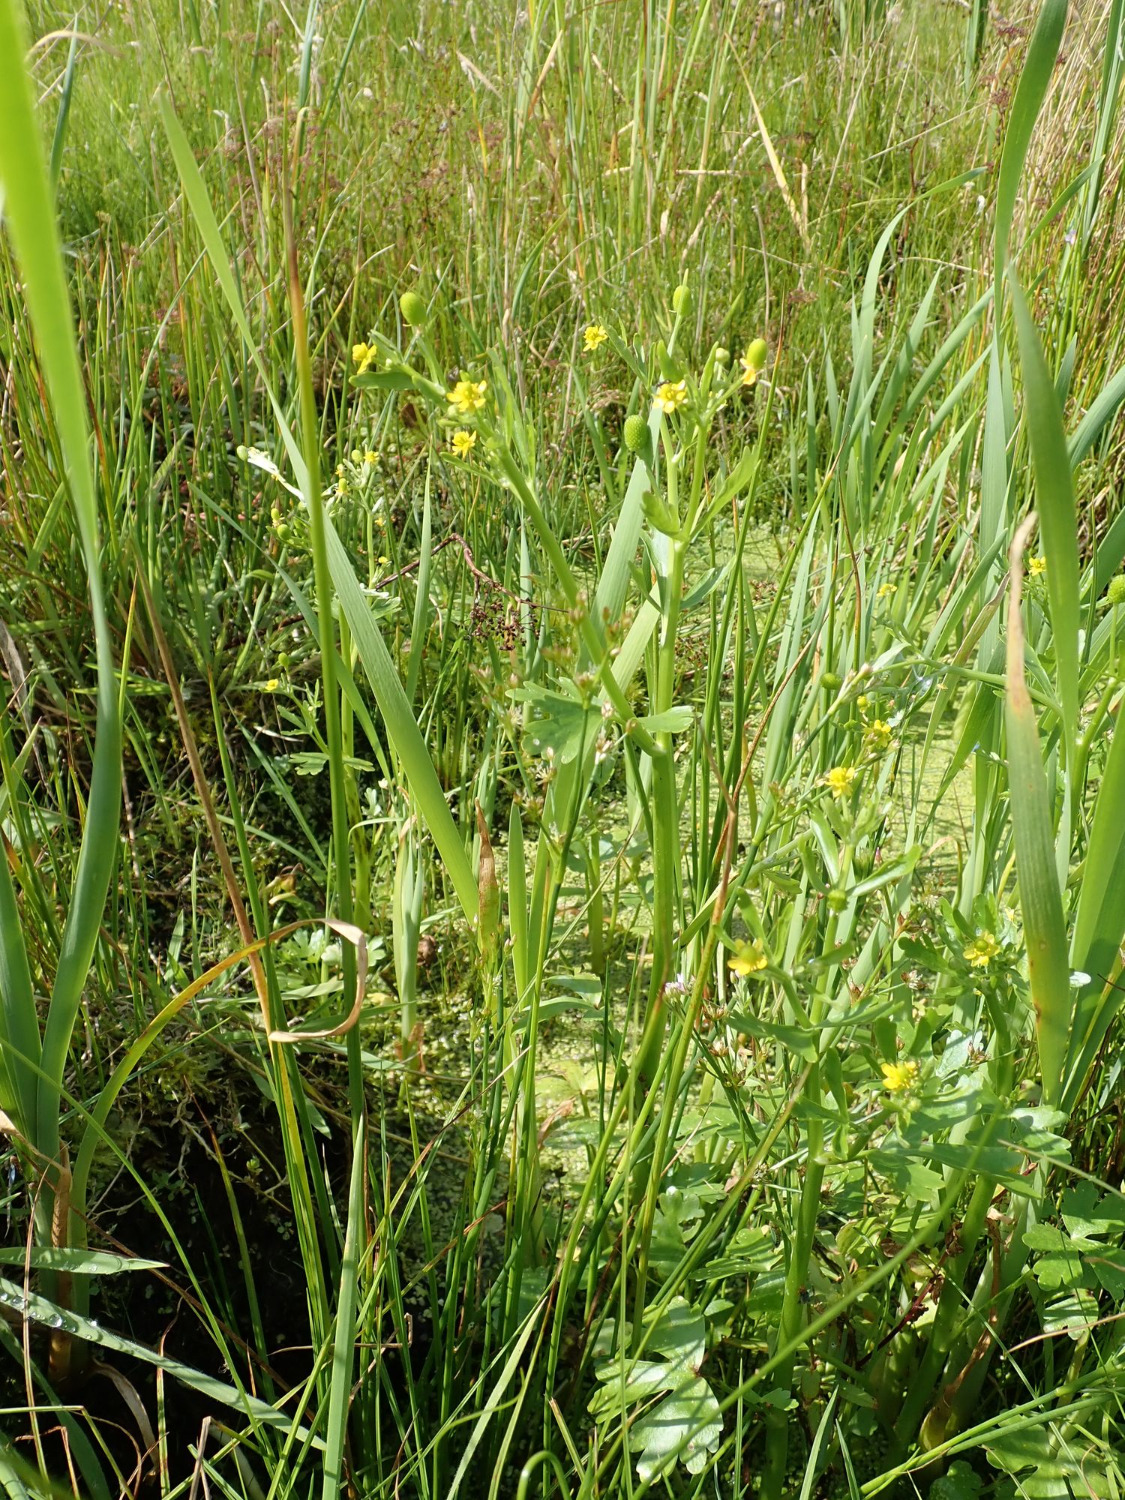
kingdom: Plantae
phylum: Tracheophyta
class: Magnoliopsida
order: Ranunculales
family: Ranunculaceae
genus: Ranunculus
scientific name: Ranunculus sceleratus
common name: Tigger-ranunkel
